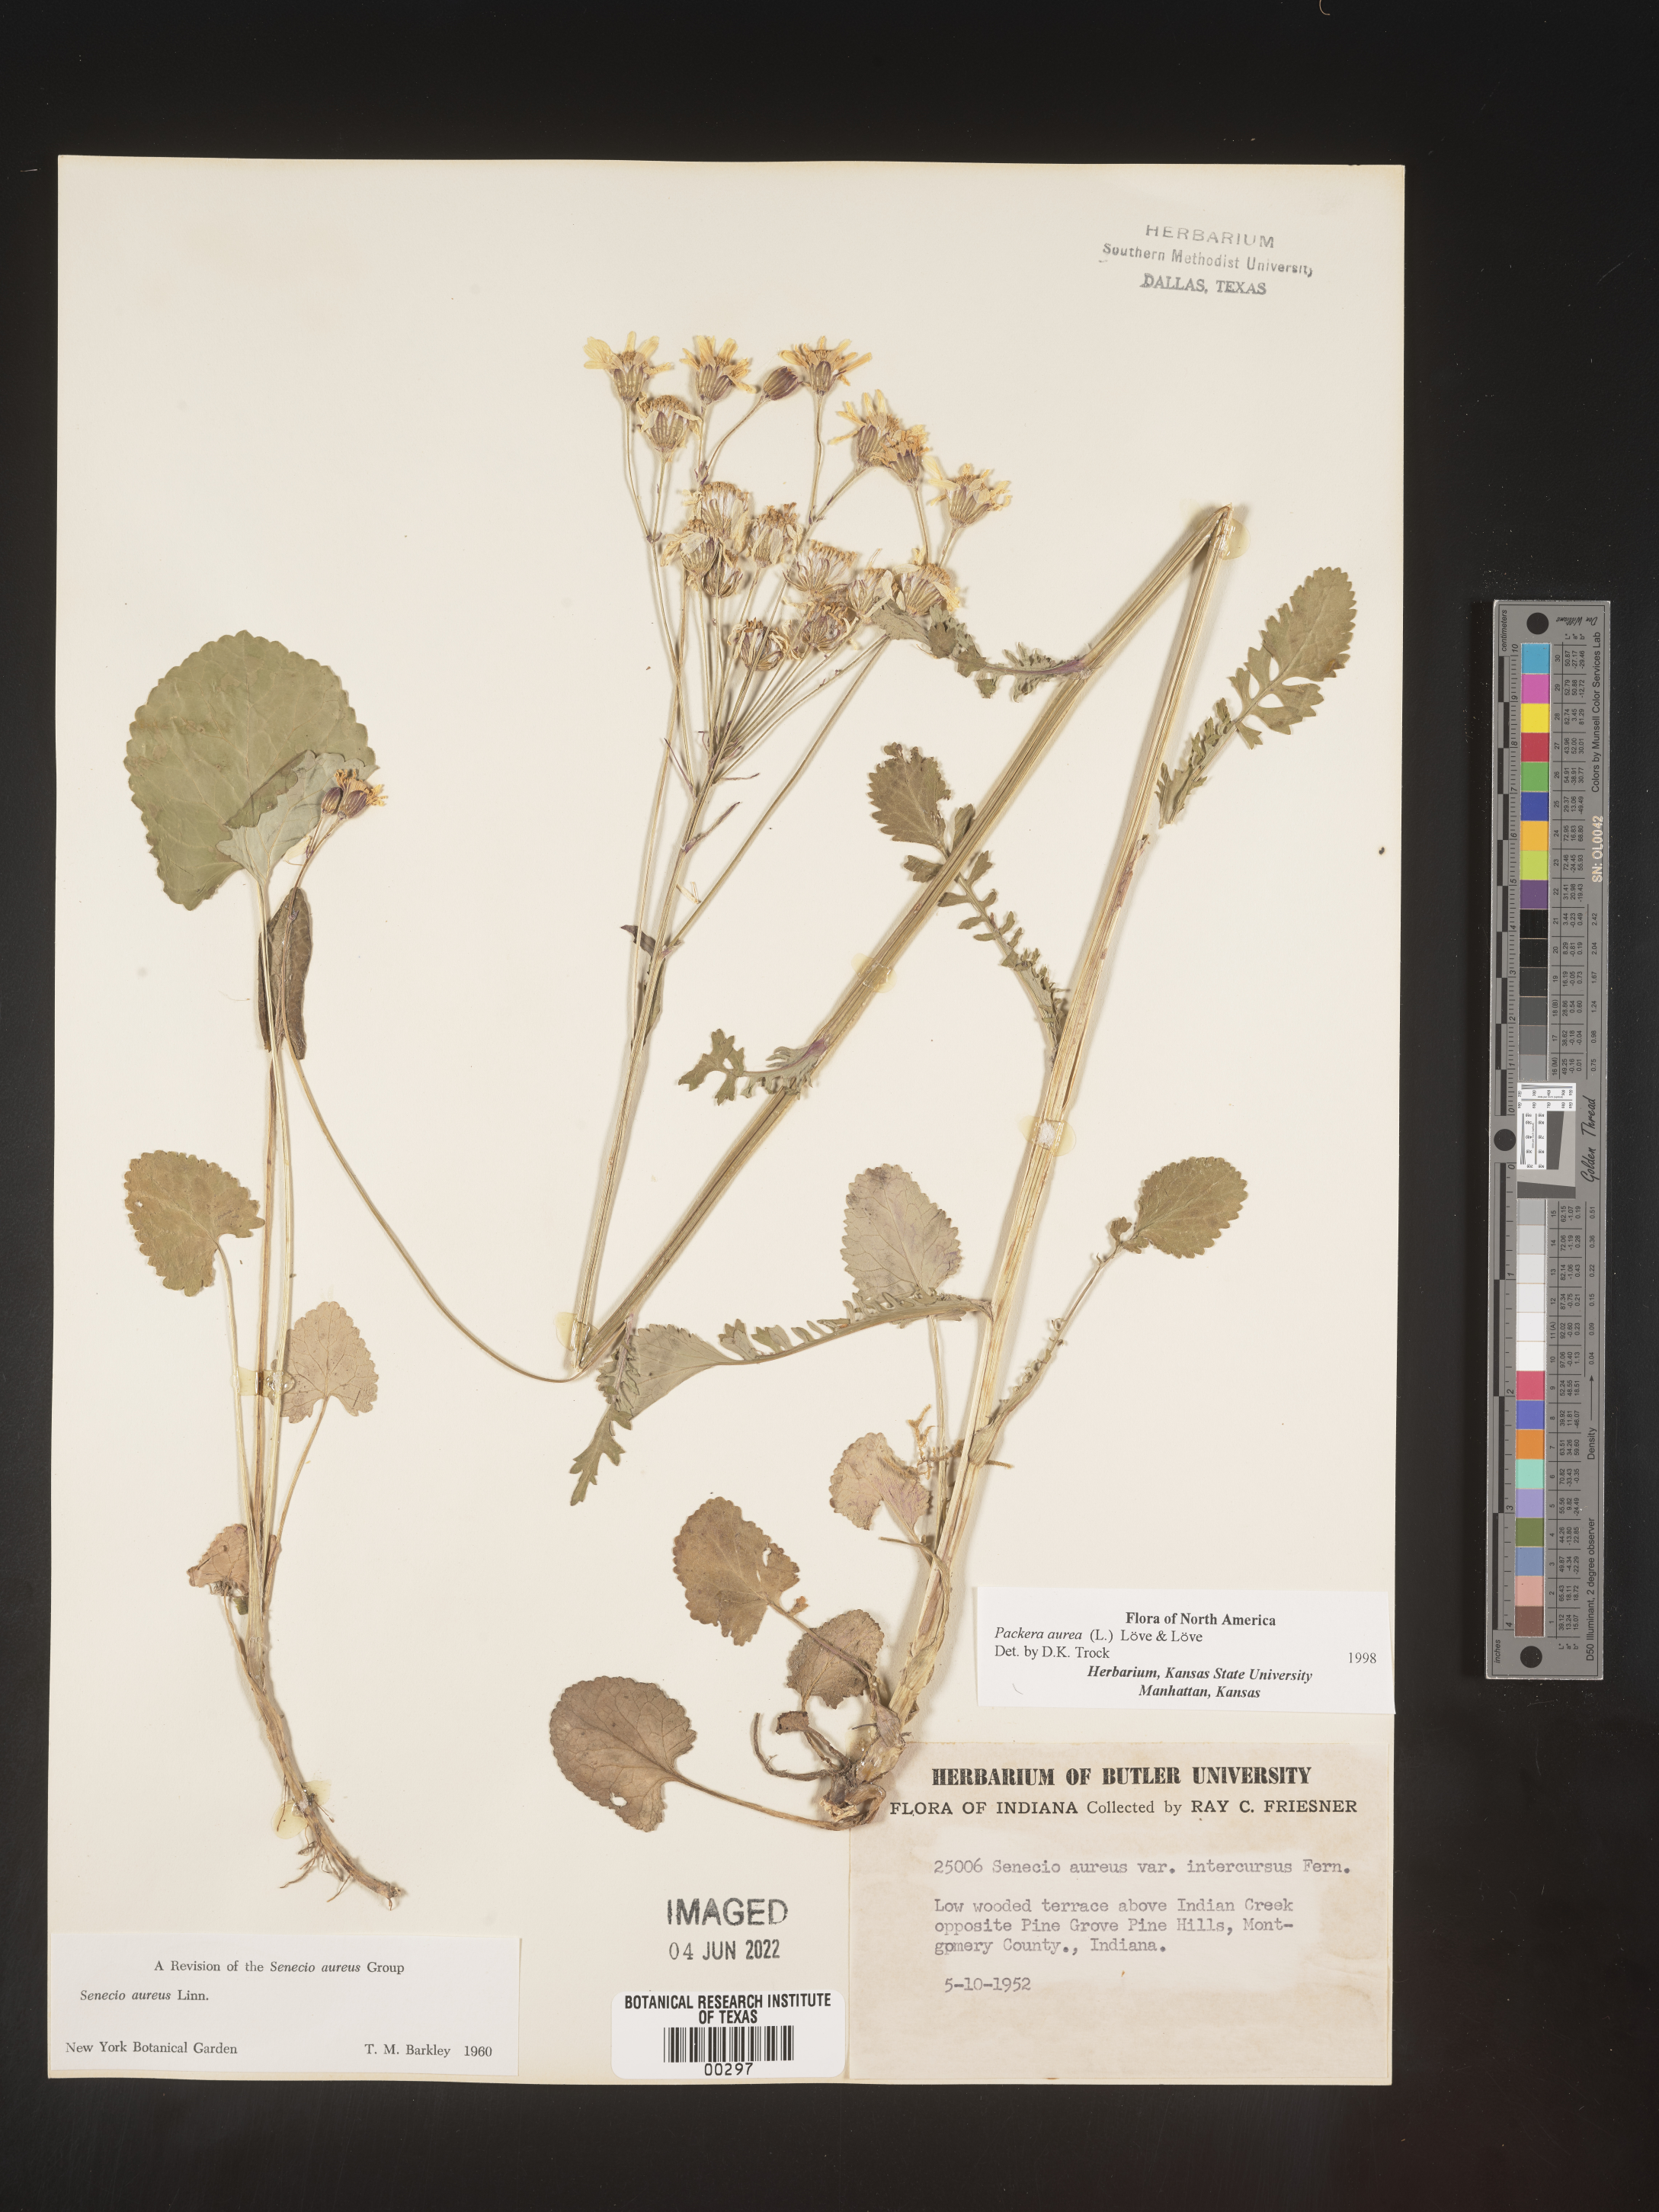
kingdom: Plantae
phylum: Tracheophyta
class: Magnoliopsida
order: Asterales
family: Asteraceae
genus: Packera
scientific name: Packera aurea
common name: Golden groundsel
